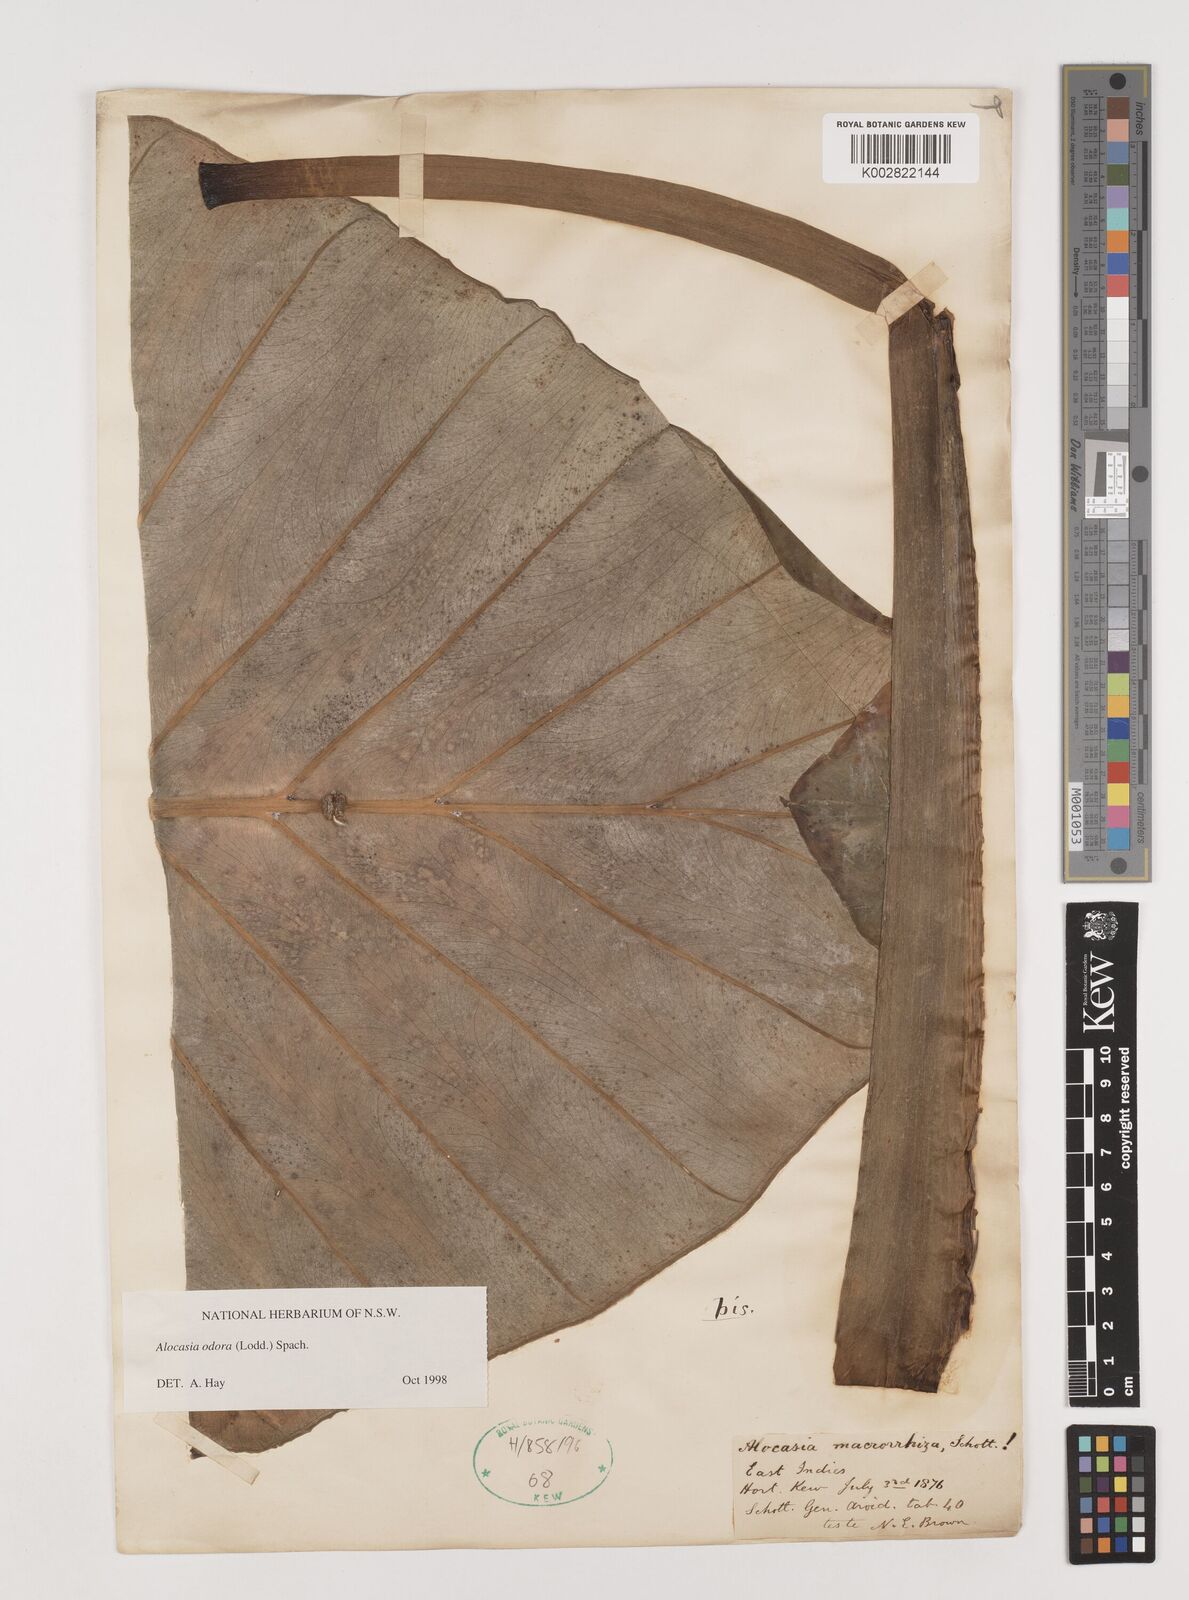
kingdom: Plantae
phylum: Tracheophyta
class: Liliopsida
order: Alismatales
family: Araceae
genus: Alocasia
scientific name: Alocasia odora
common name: Asian taro
